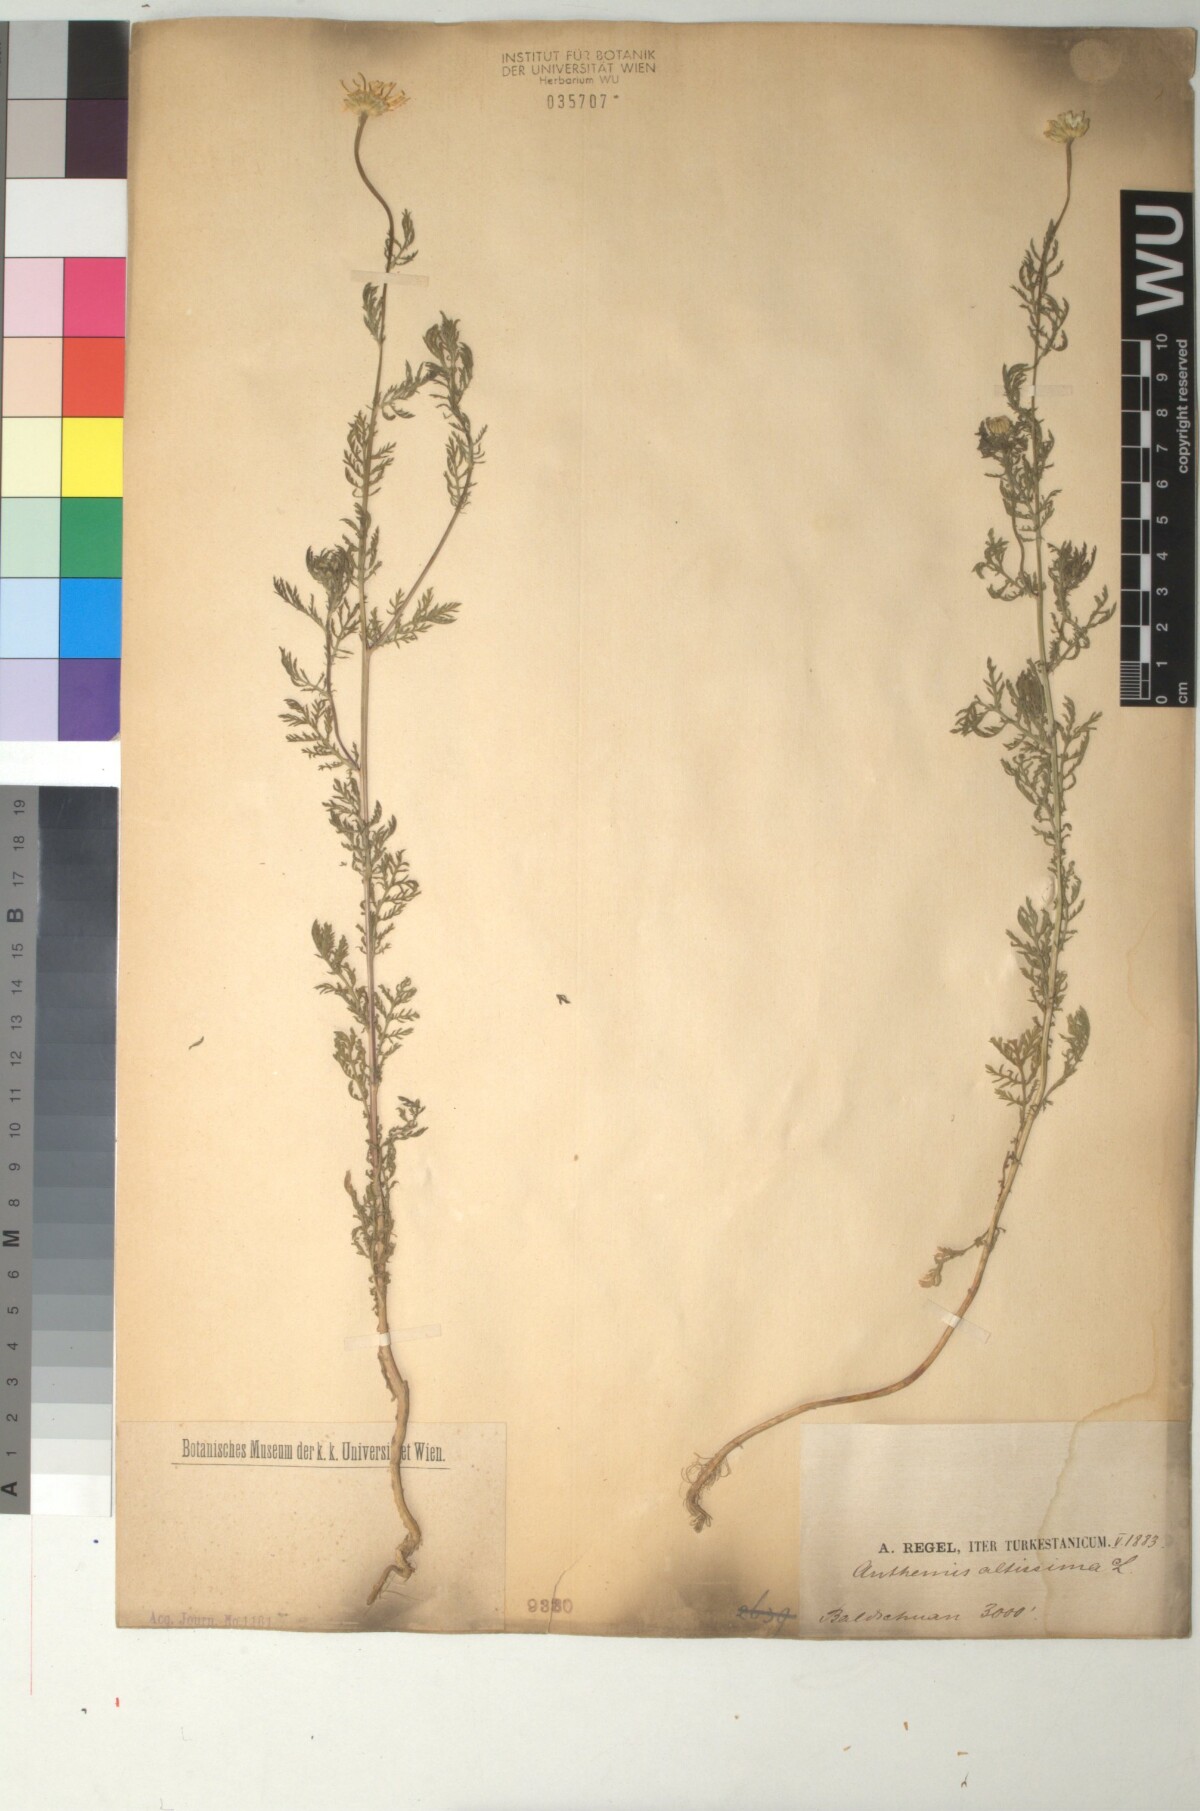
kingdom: Plantae
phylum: Tracheophyta
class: Magnoliopsida
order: Asterales
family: Asteraceae
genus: Cota
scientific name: Cota altissima
